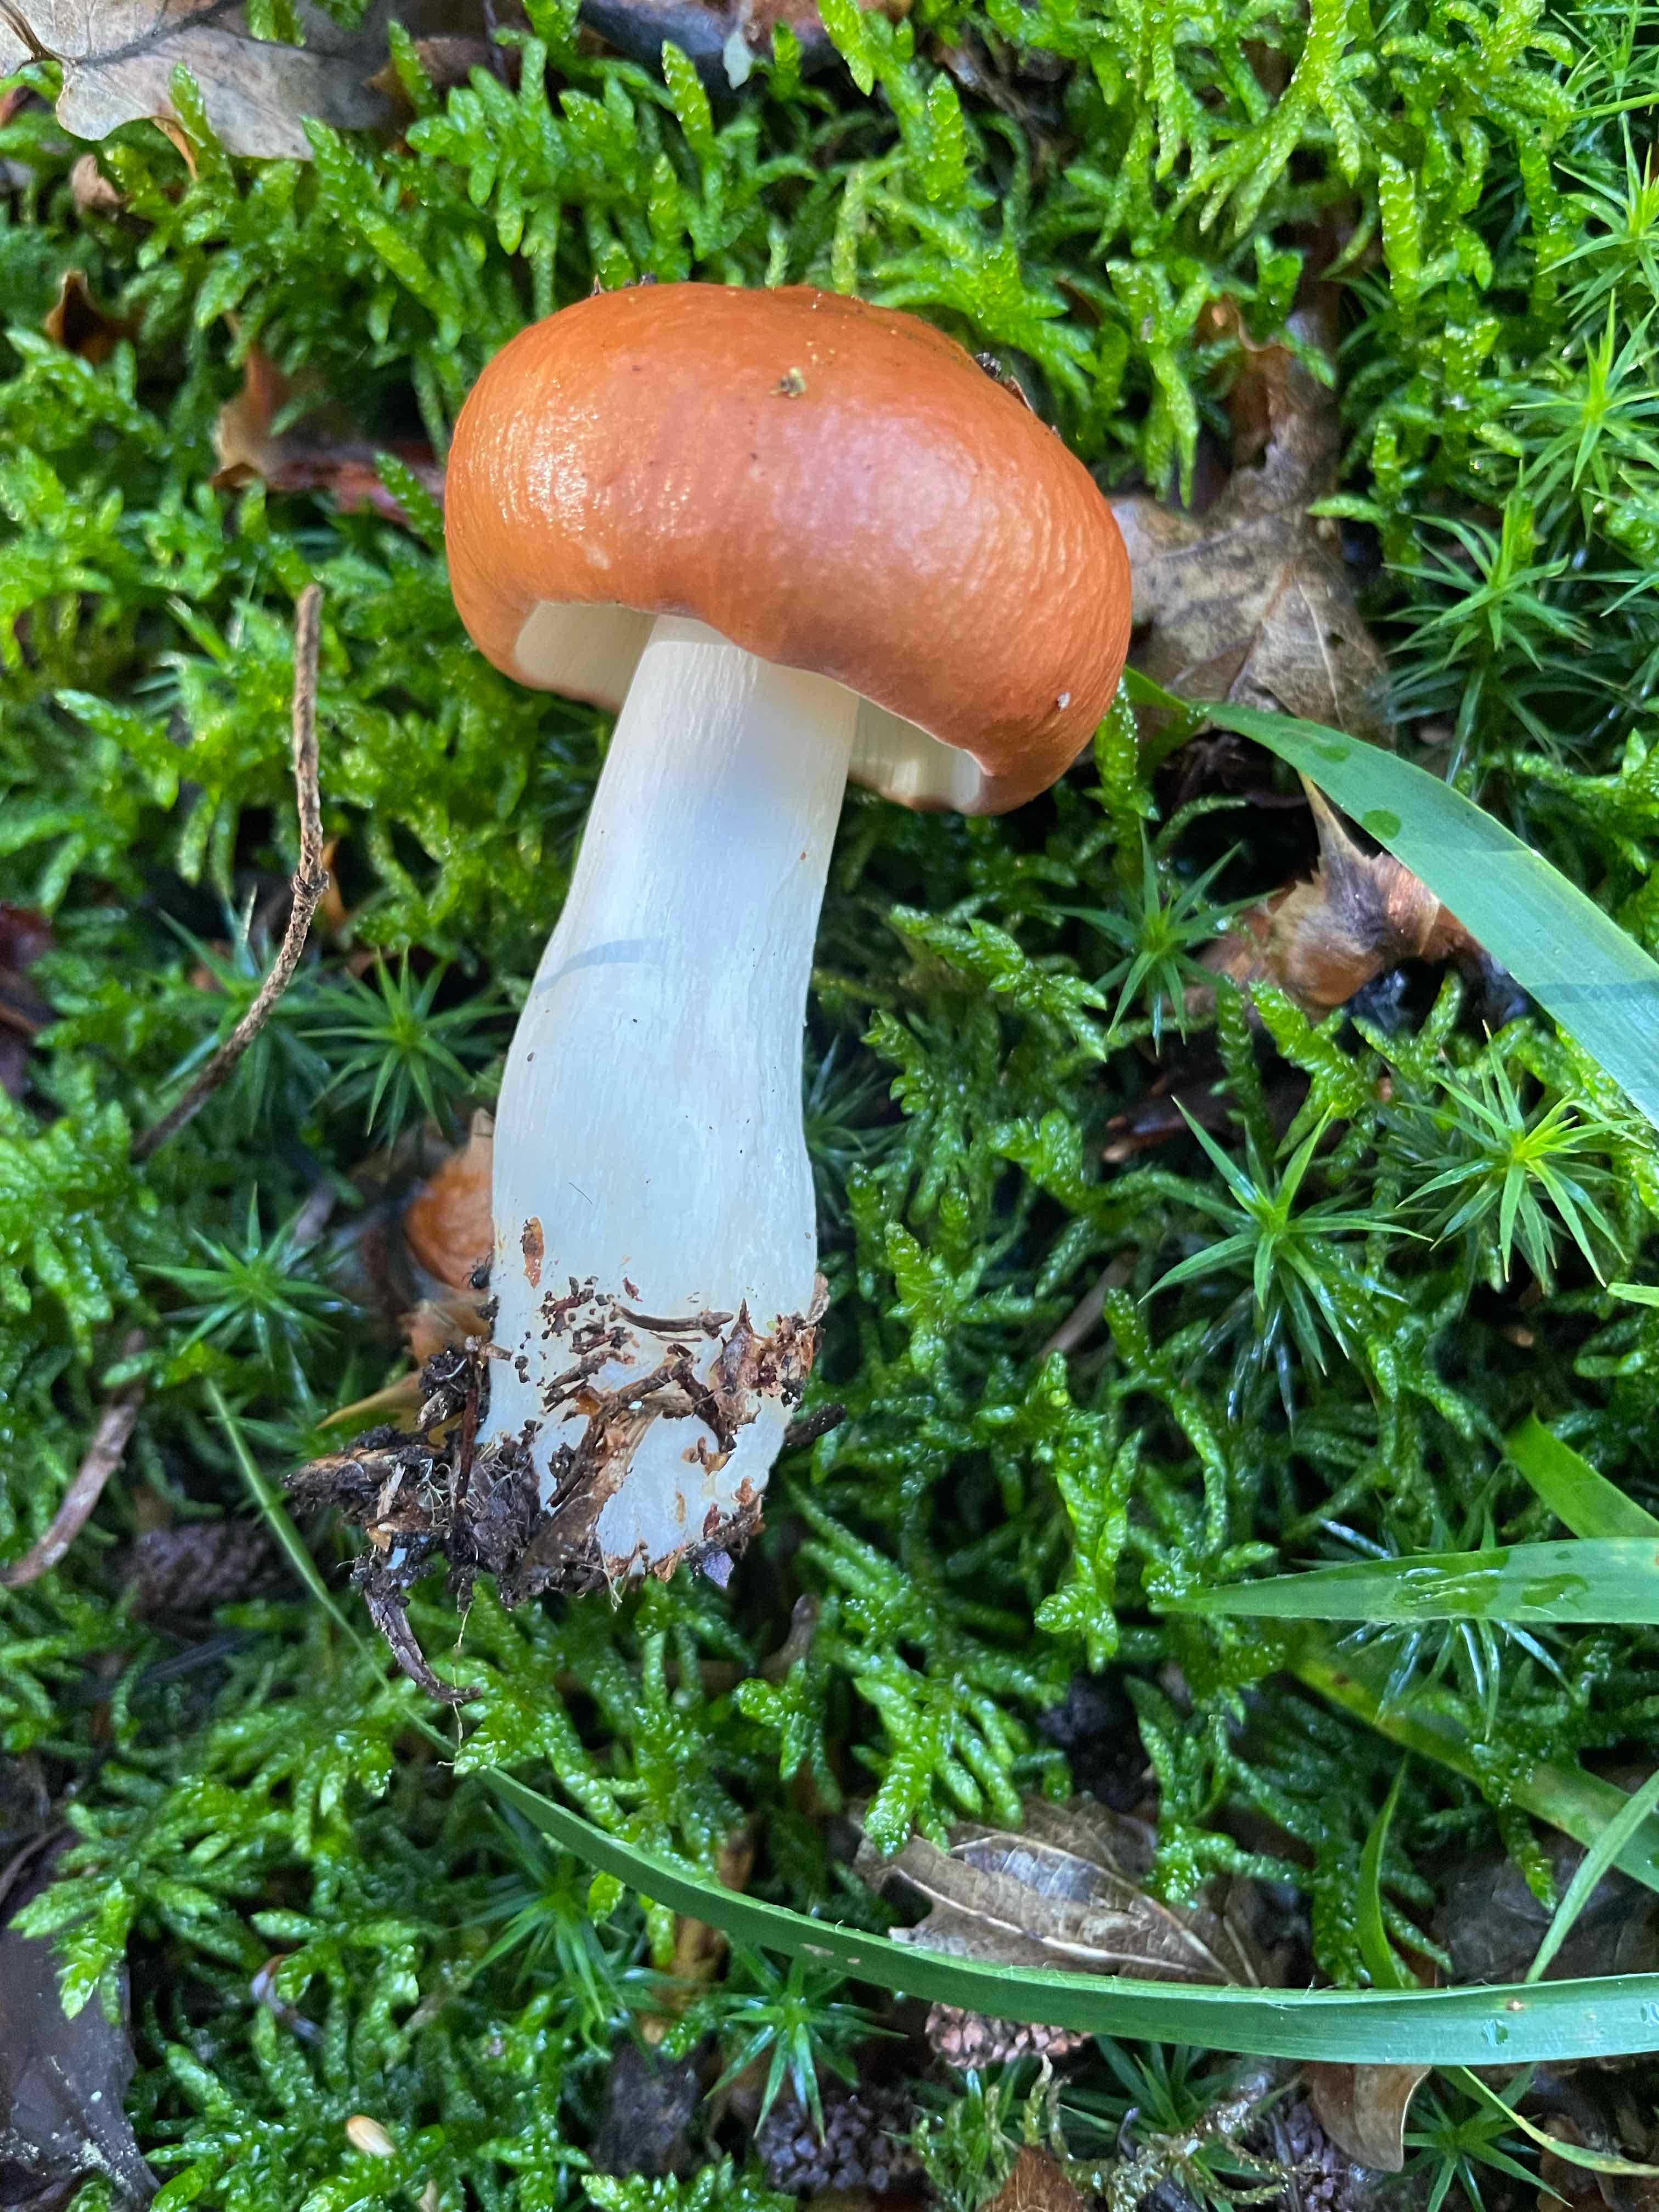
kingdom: Fungi
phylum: Basidiomycota
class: Agaricomycetes
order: Russulales
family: Russulaceae
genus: Russula
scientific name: Russula
